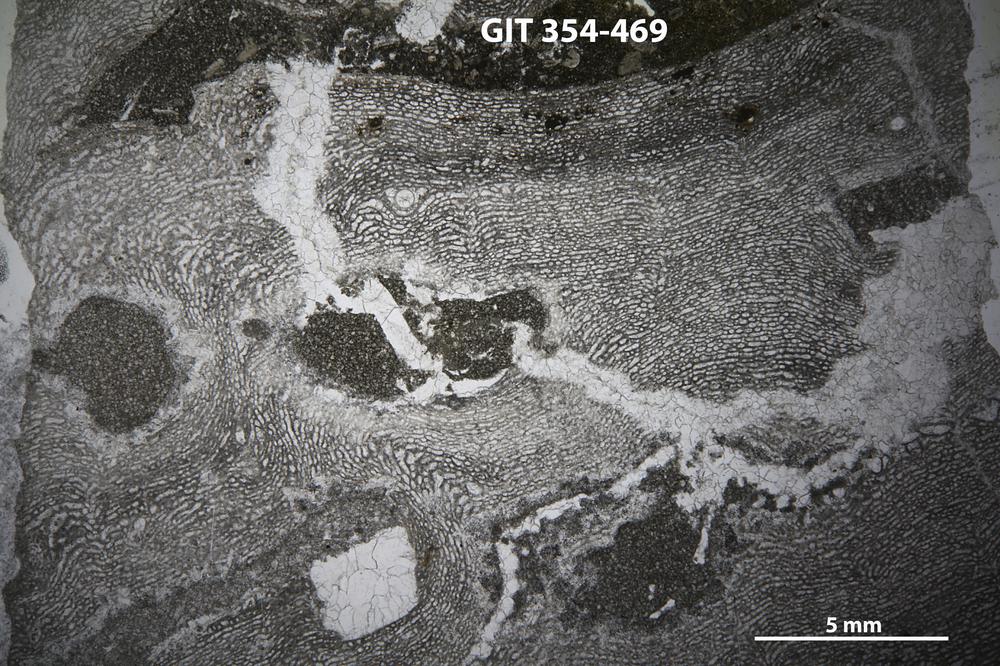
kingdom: Animalia
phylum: Porifera
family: Clathrodictyidae
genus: Clathrodictyon
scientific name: Clathrodictyon Stromatopora variolaris
